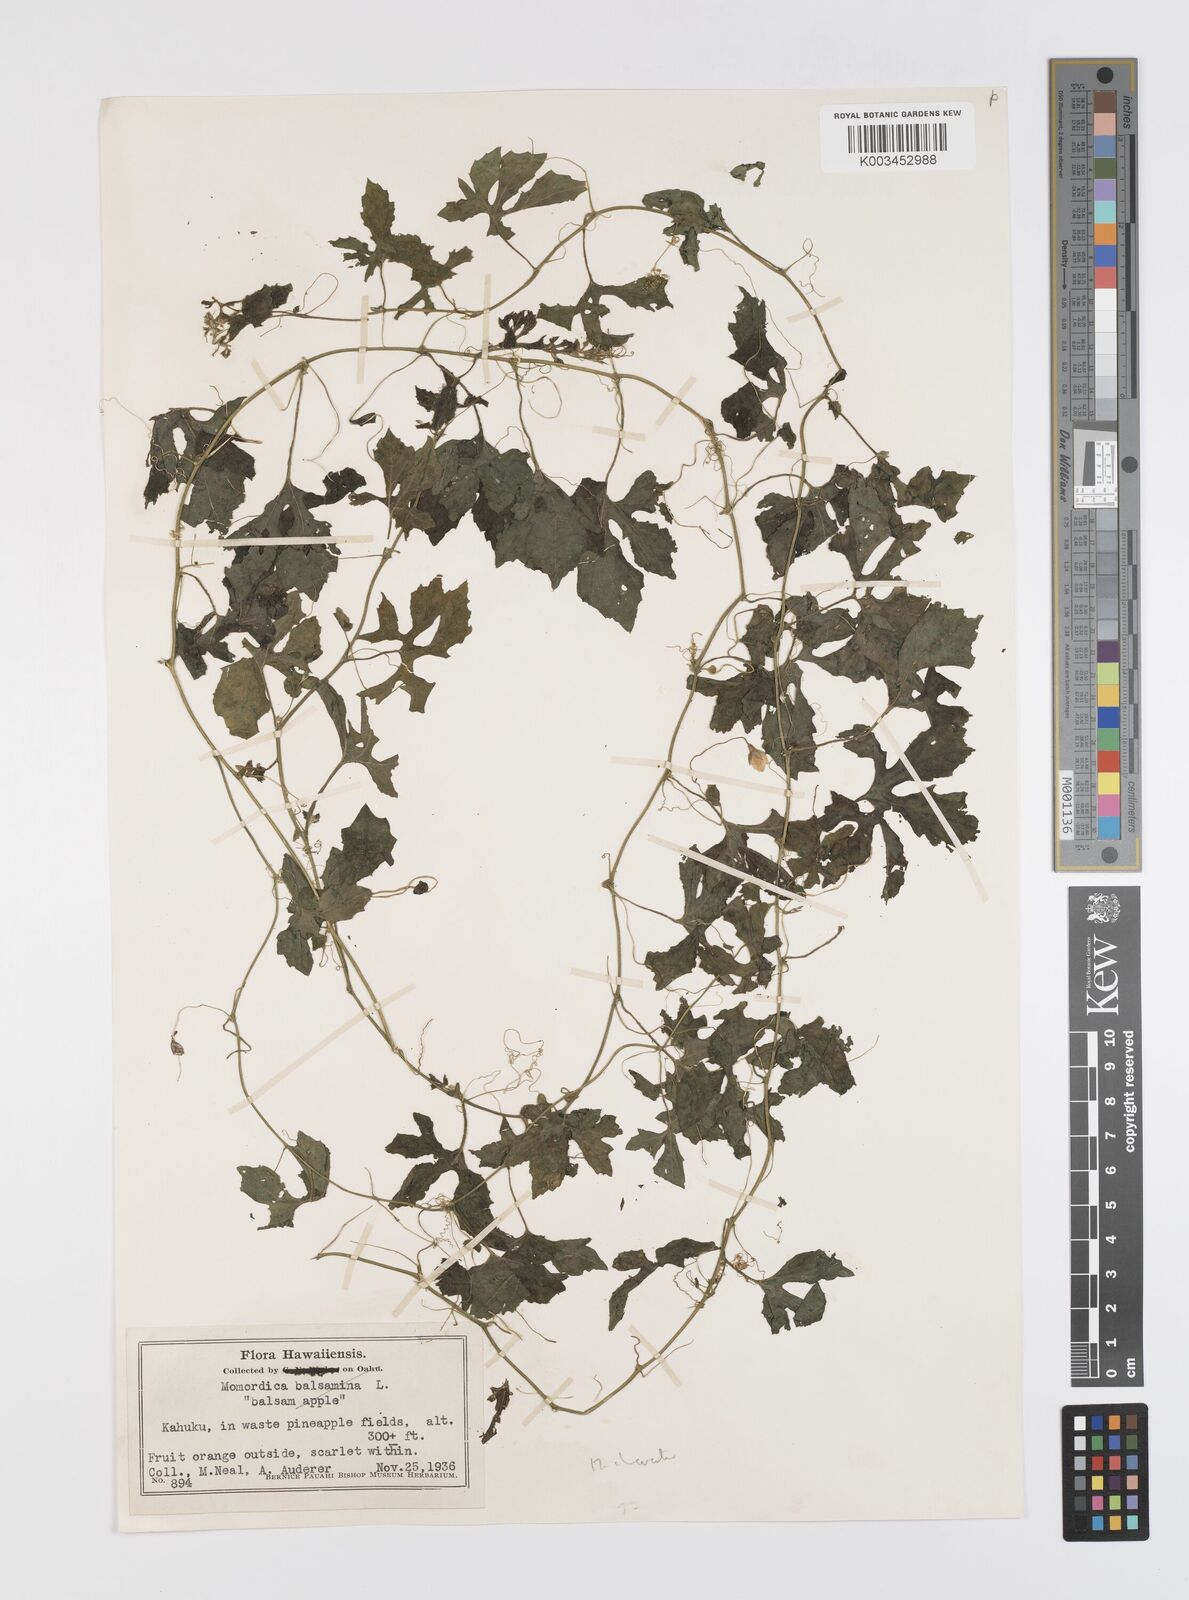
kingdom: Plantae
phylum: Tracheophyta
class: Magnoliopsida
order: Cucurbitales
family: Cucurbitaceae
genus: Momordica
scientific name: Momordica charantia
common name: Balsampear
